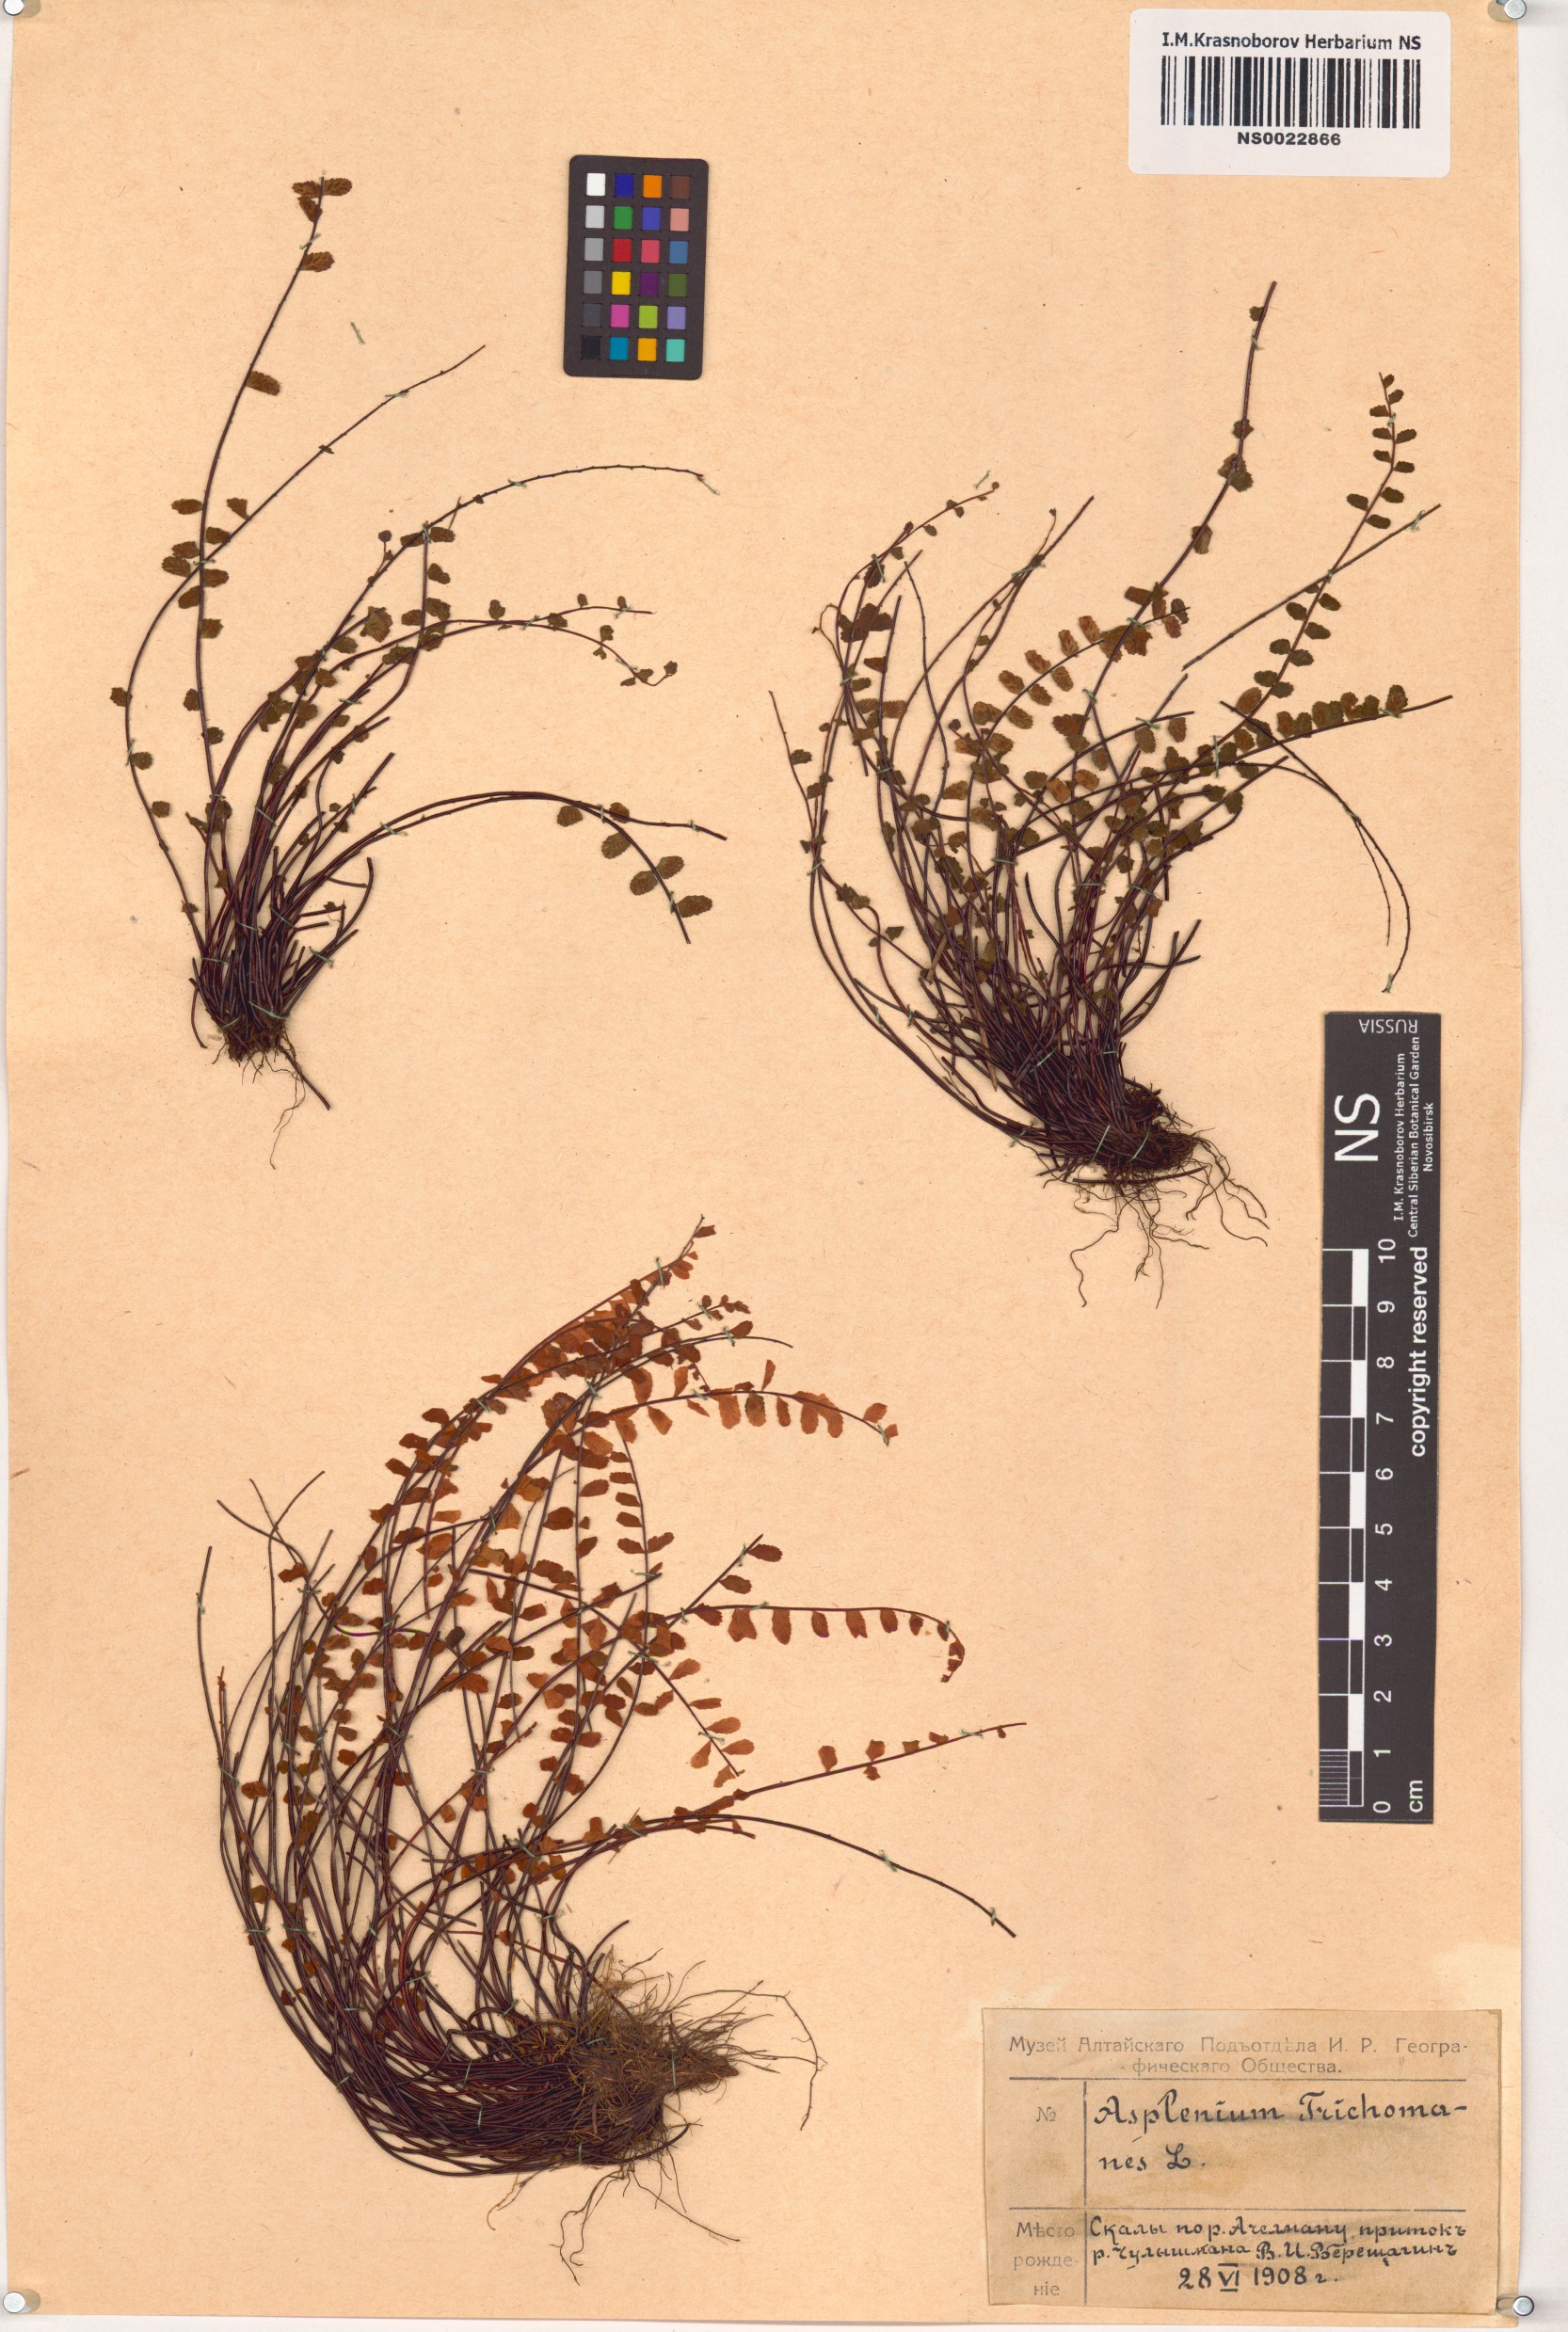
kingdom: Plantae
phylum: Tracheophyta
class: Polypodiopsida
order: Polypodiales
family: Aspleniaceae
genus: Asplenium
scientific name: Asplenium trichomanes
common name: Maidenhair spleenwort
